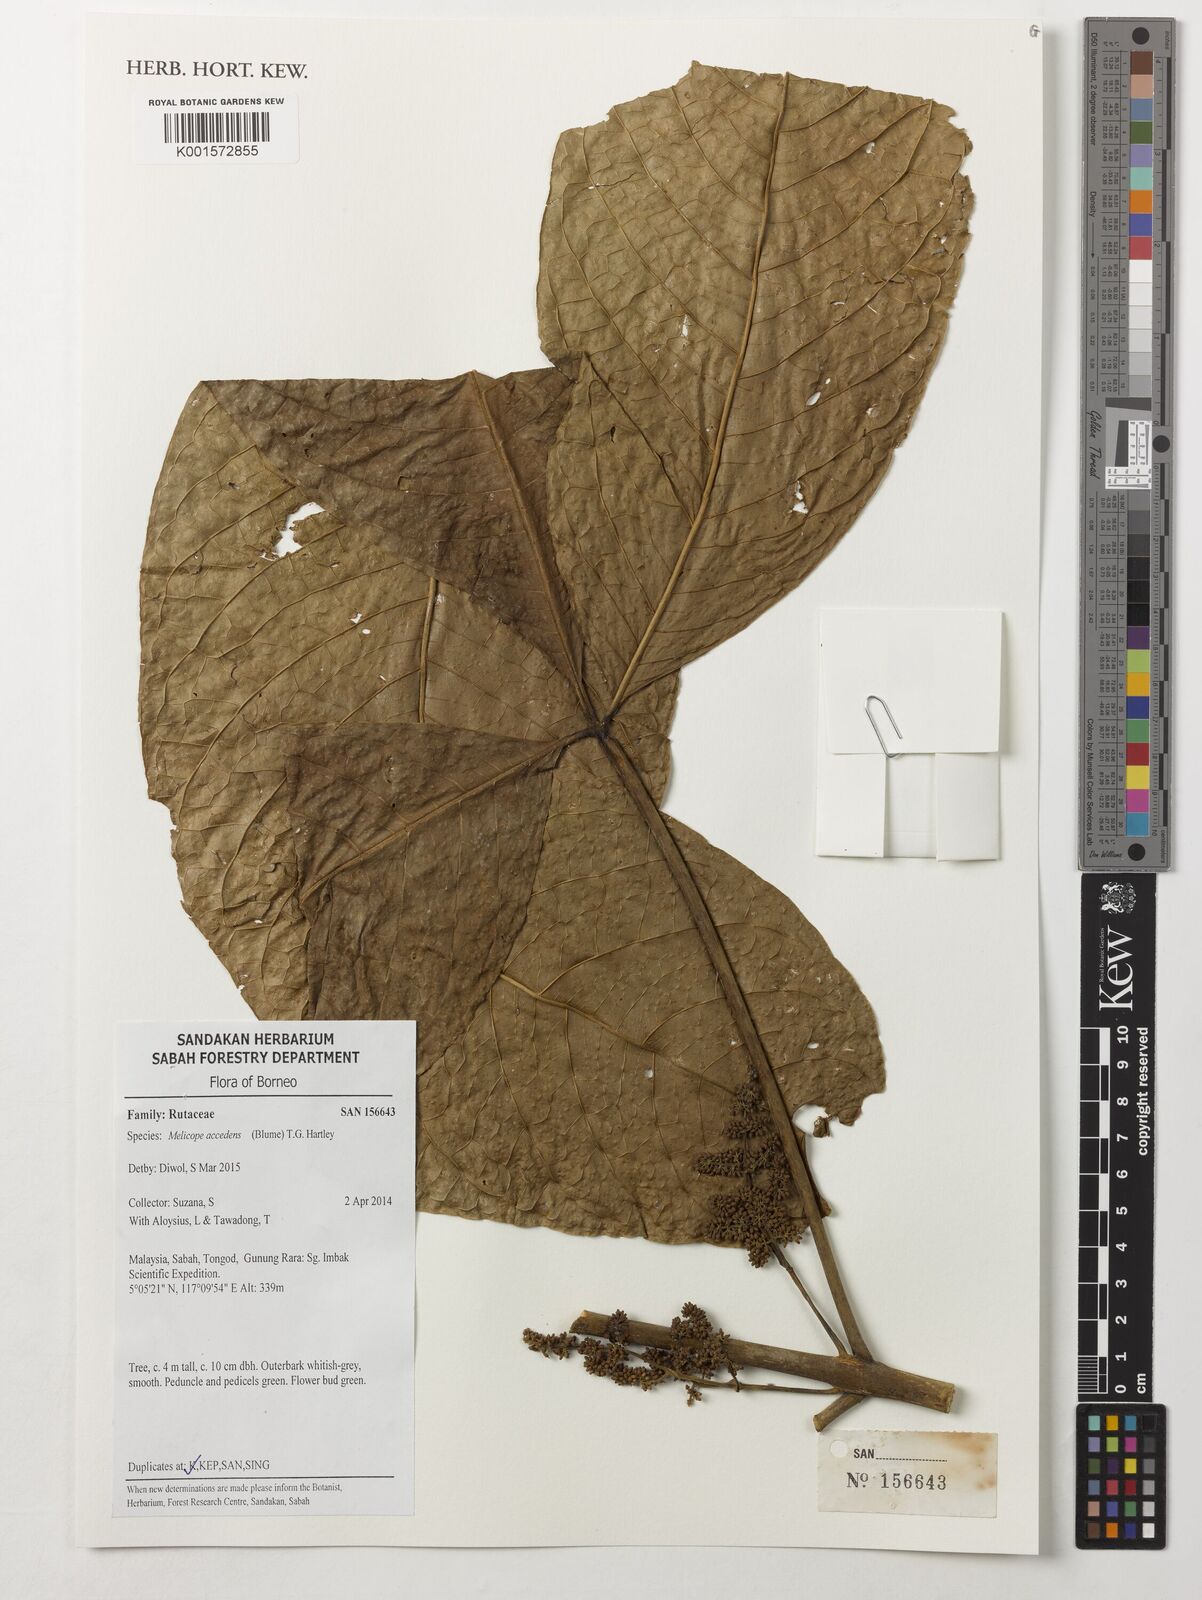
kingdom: Plantae
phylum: Tracheophyta
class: Magnoliopsida
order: Sapindales
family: Rutaceae
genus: Melicope
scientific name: Melicope accedens
